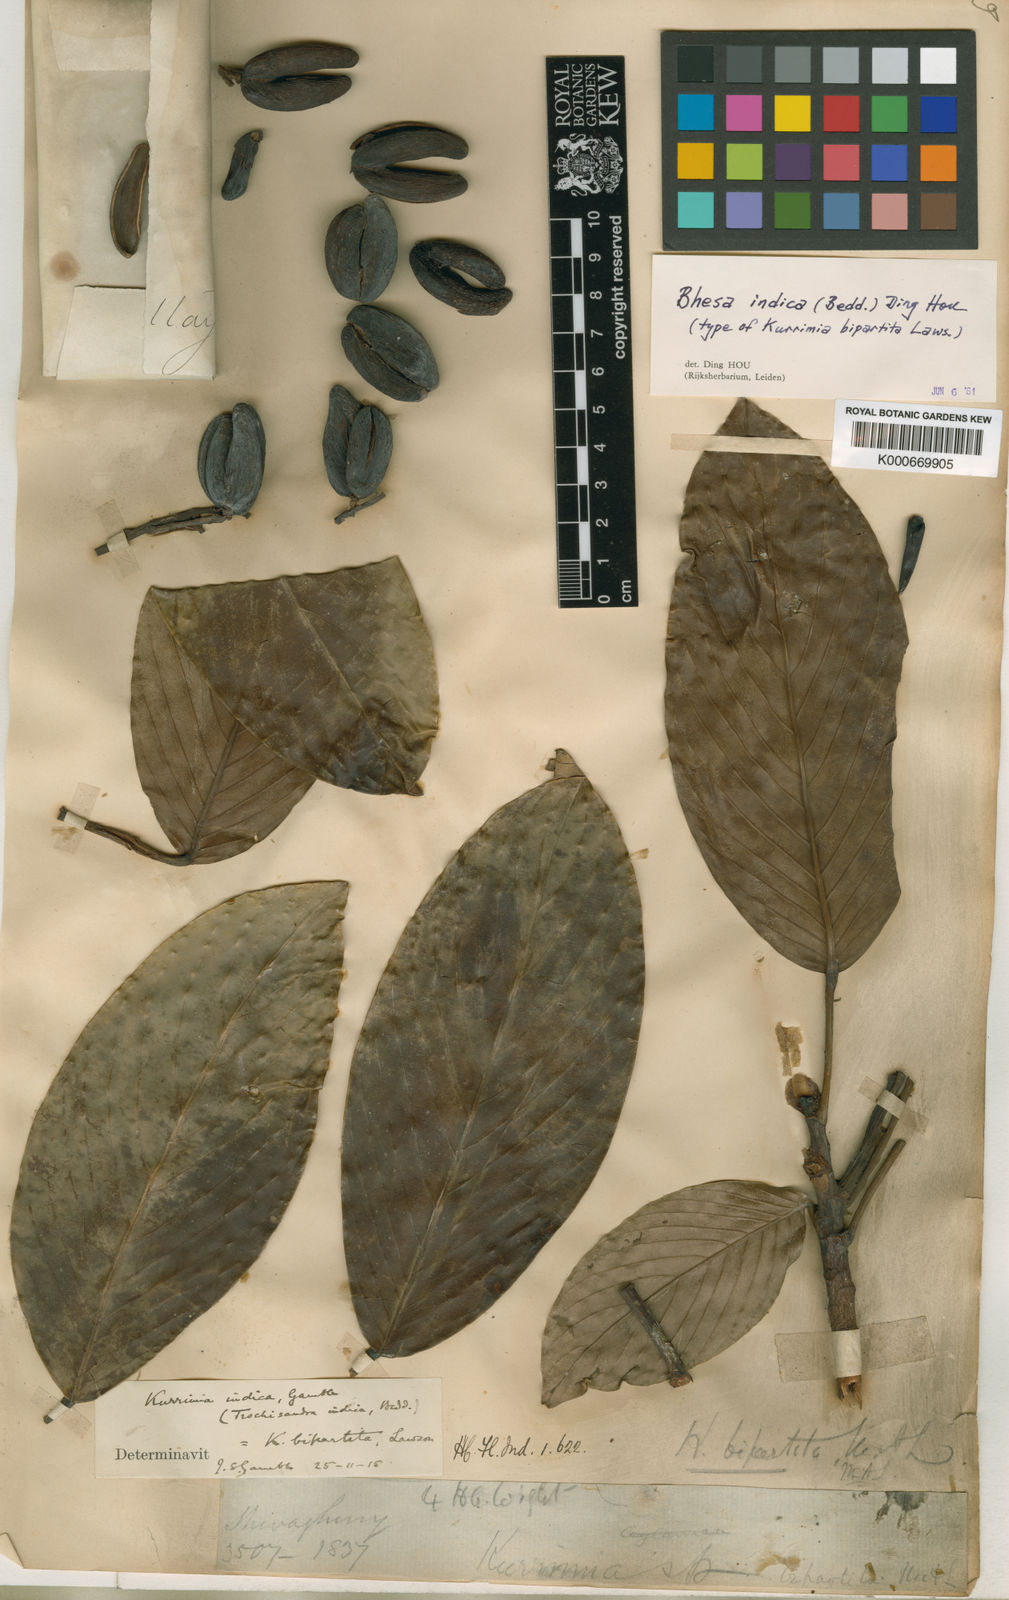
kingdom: Plantae
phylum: Tracheophyta
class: Magnoliopsida
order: Malpighiales
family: Centroplacaceae
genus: Bhesa
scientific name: Bhesa indica
